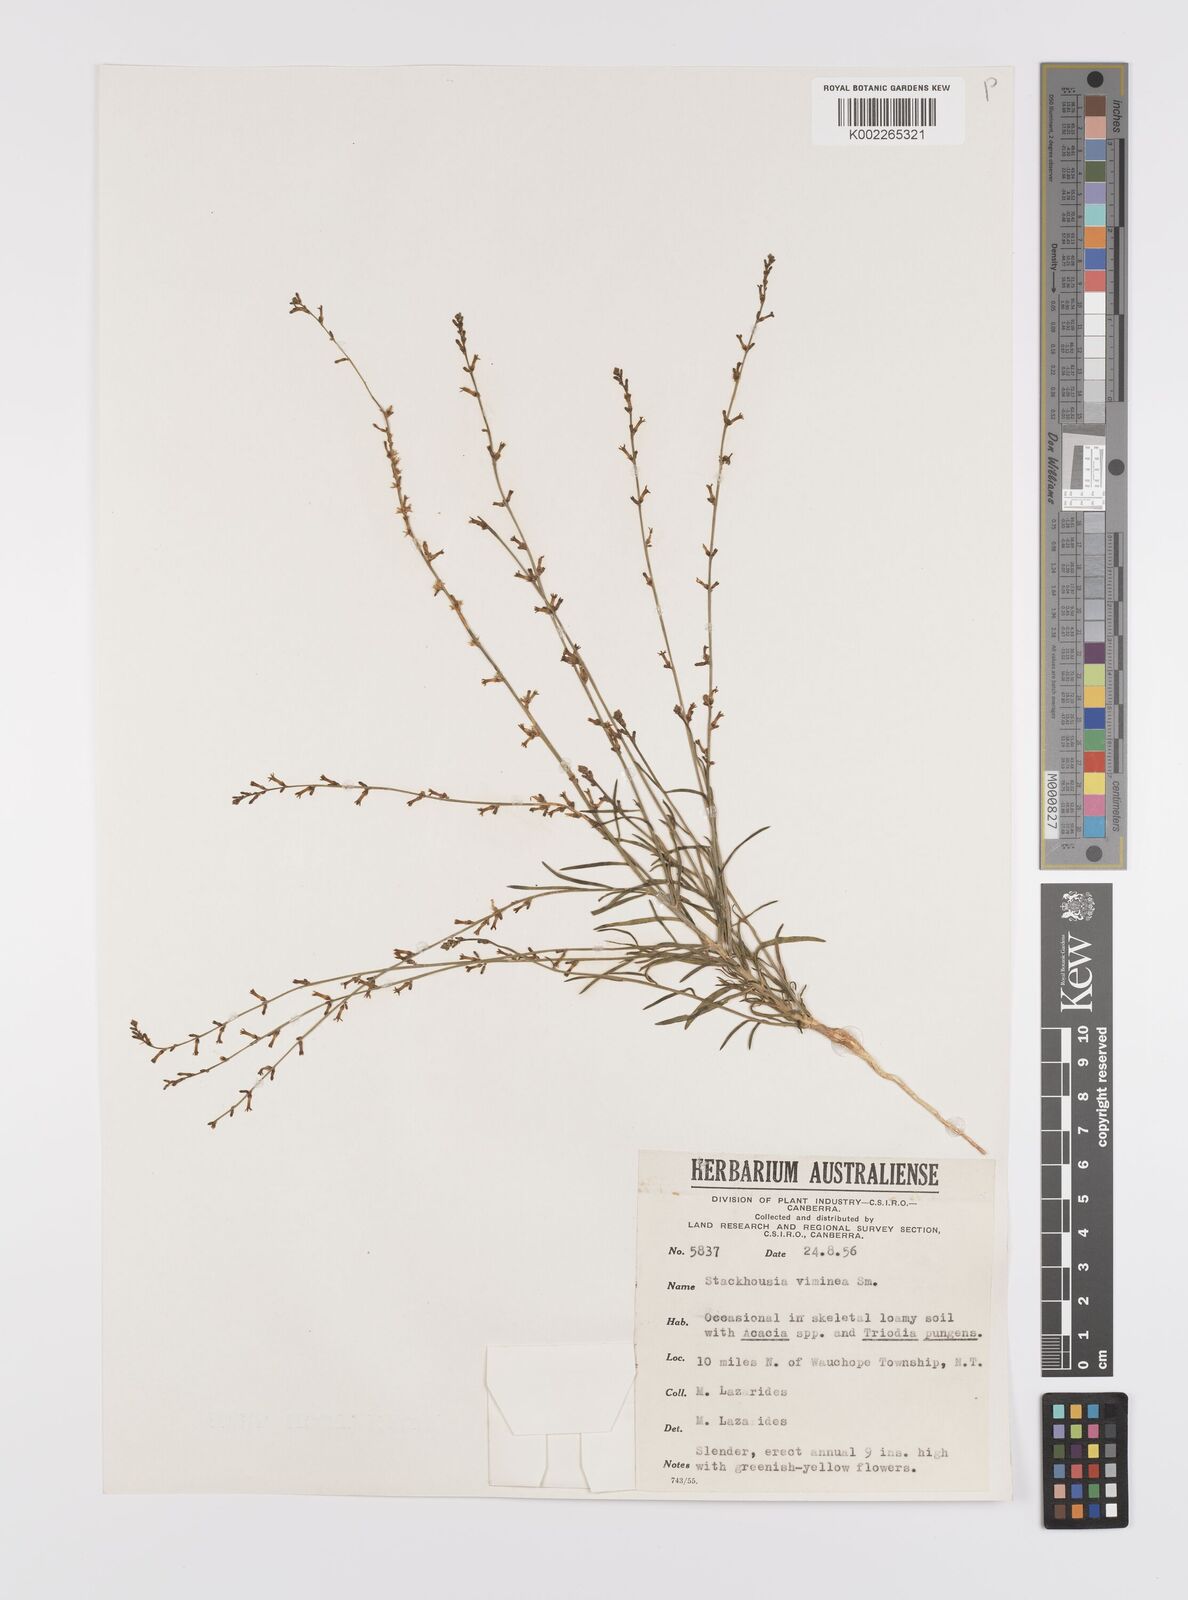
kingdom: Plantae
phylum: Tracheophyta
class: Magnoliopsida
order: Celastrales
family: Celastraceae
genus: Stackhousia
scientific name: Stackhousia viminea
